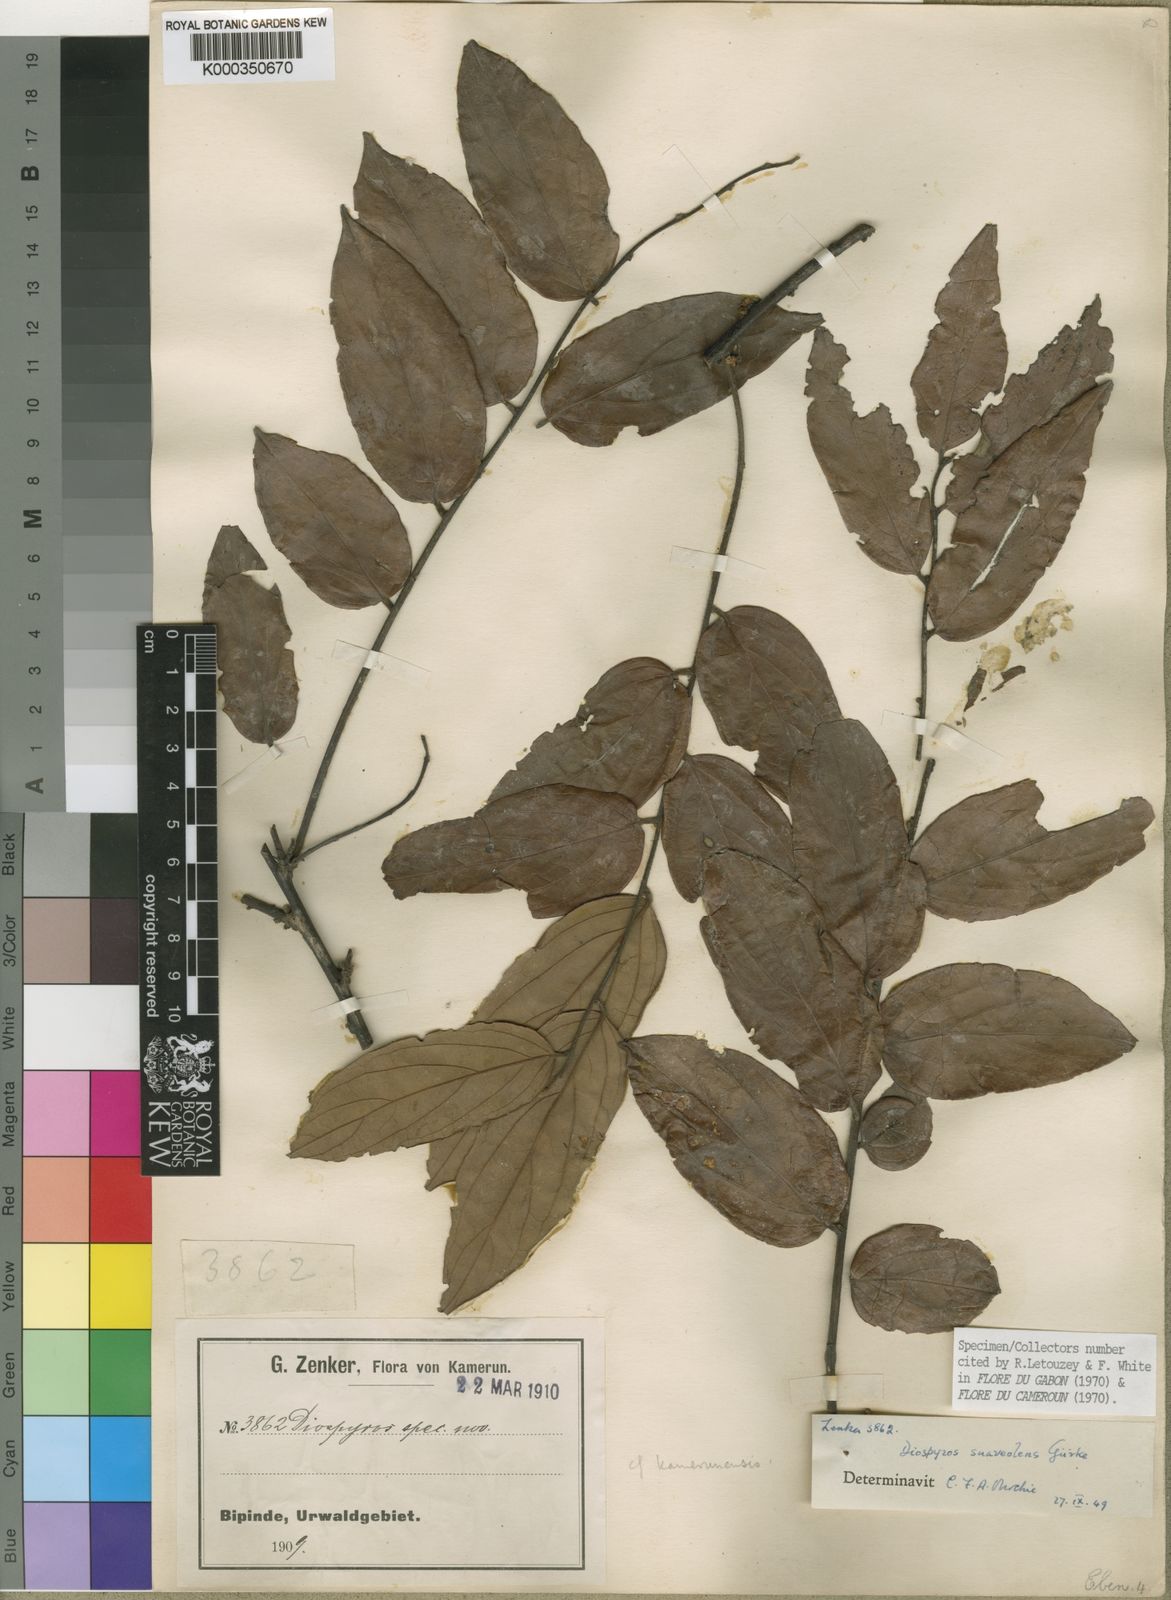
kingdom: Plantae
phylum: Tracheophyta
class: Magnoliopsida
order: Ericales
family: Ebenaceae
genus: Diospyros
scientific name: Diospyros
